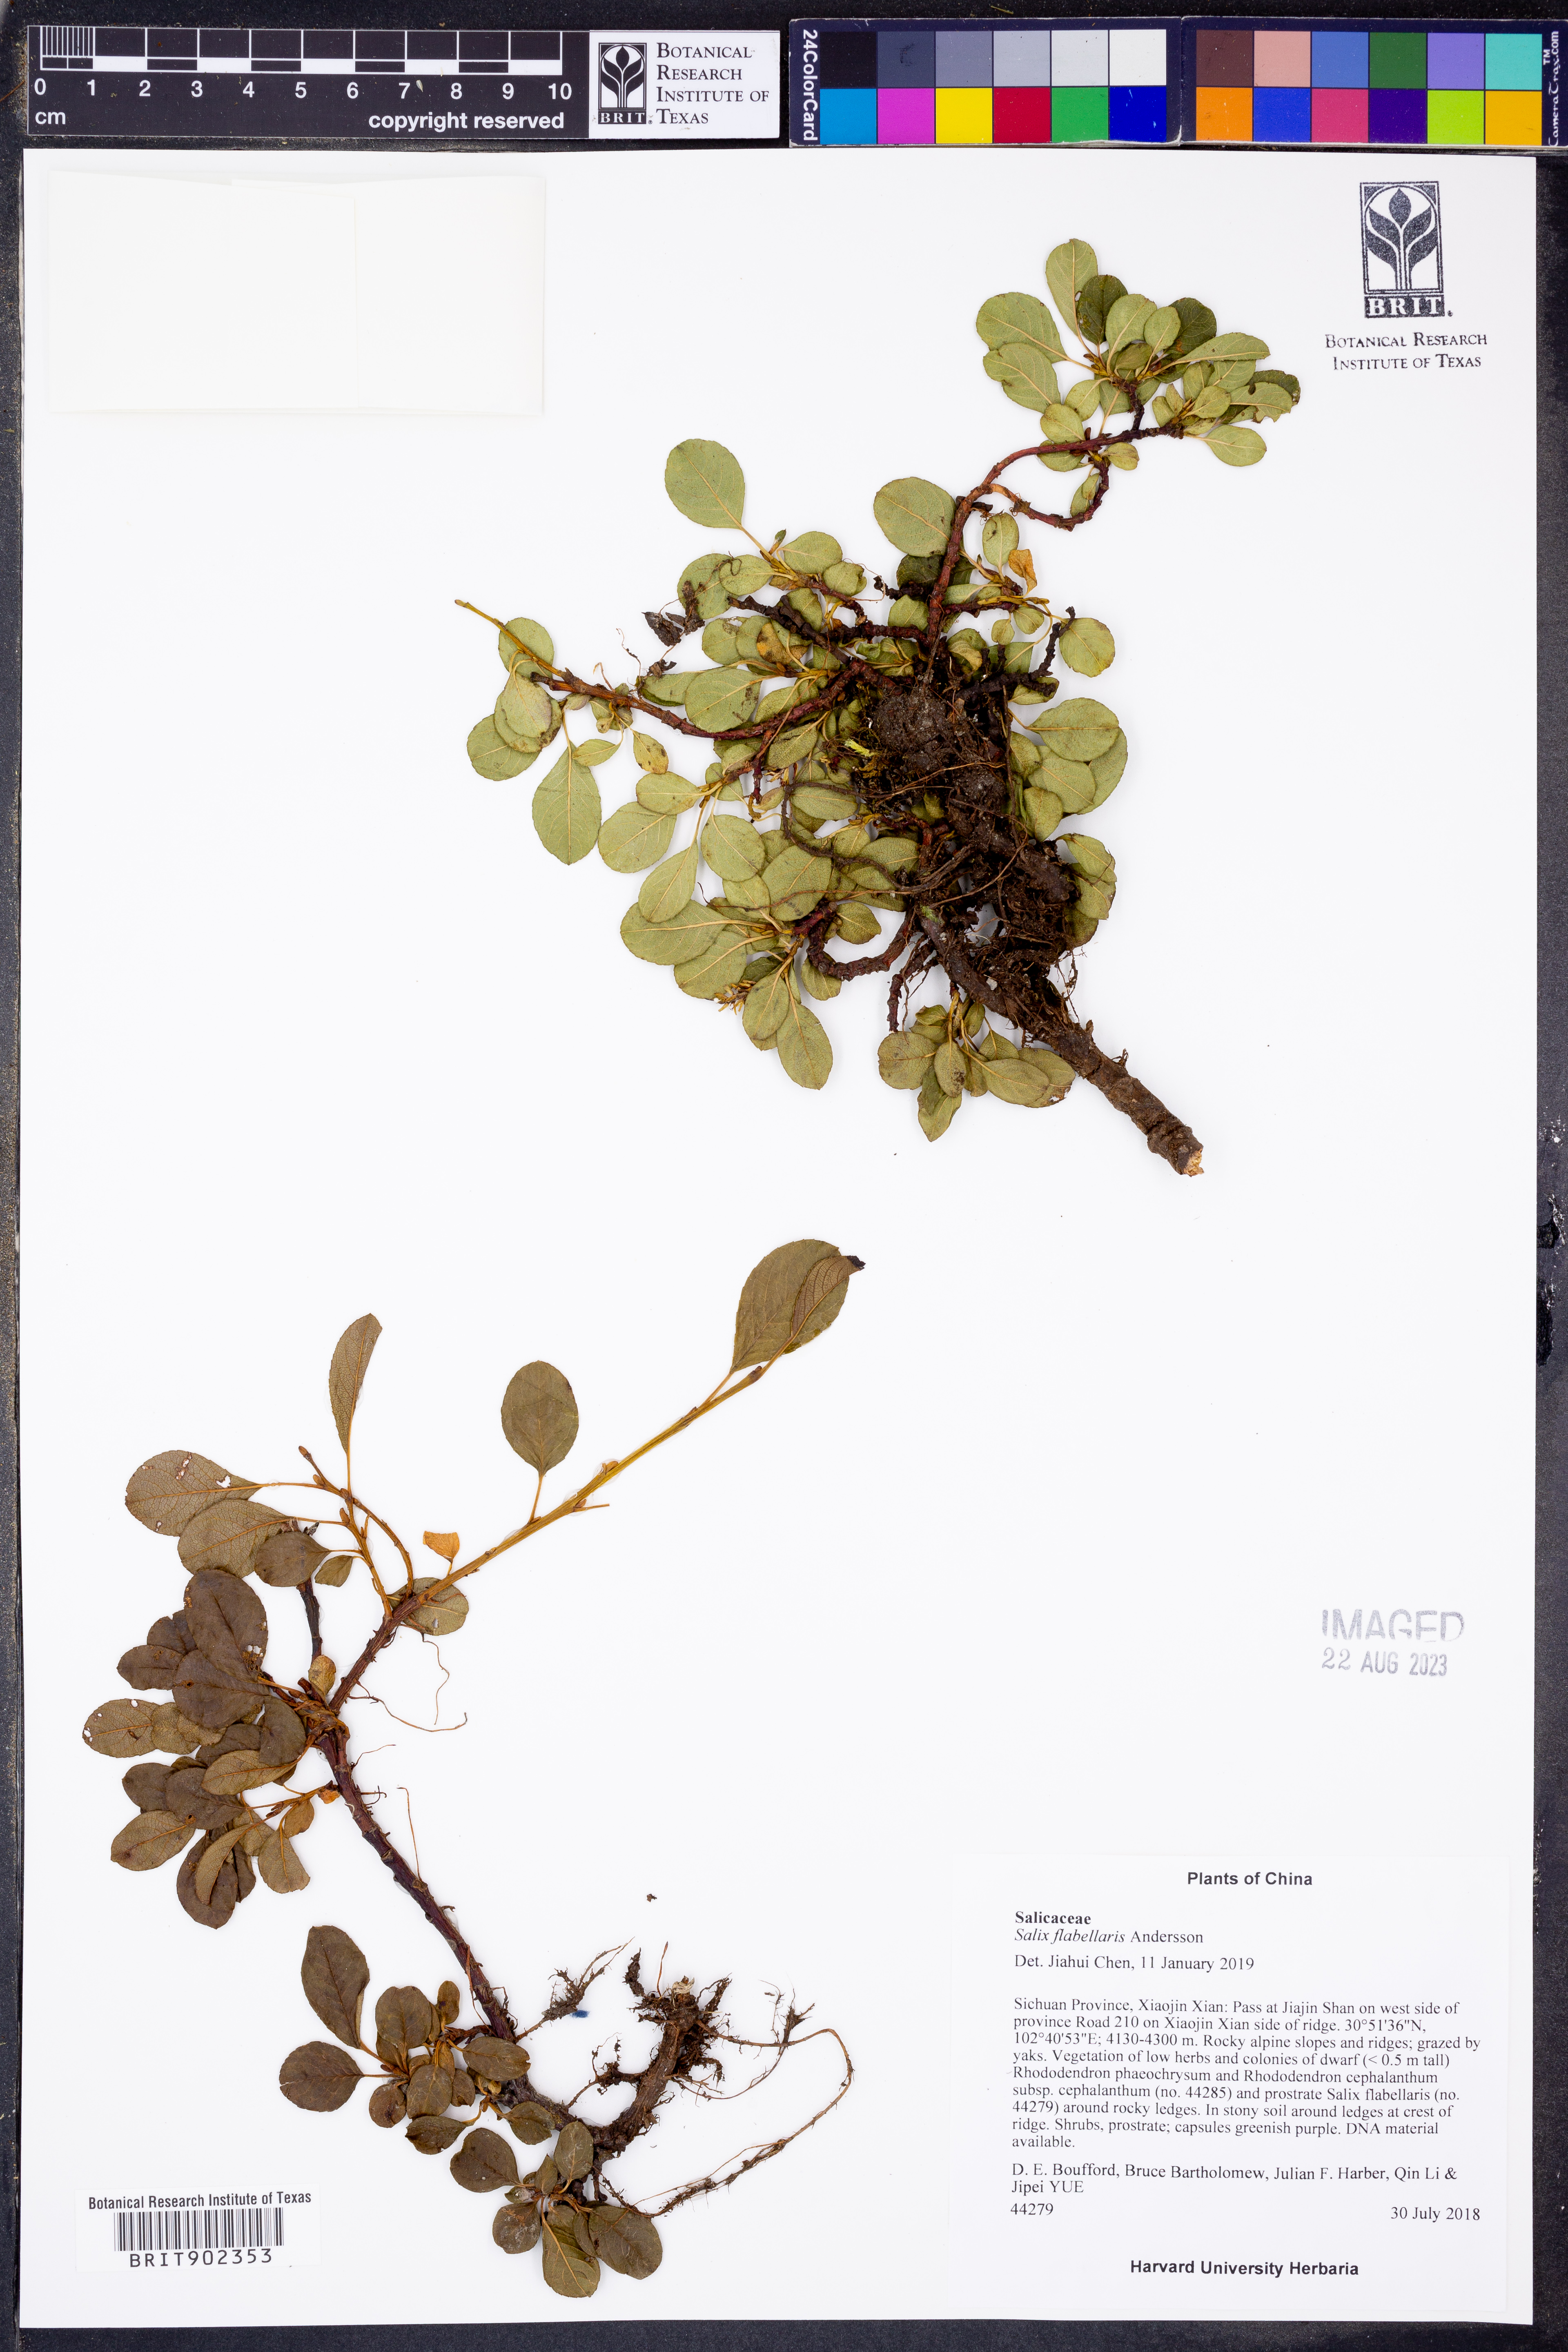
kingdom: Plantae
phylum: Tracheophyta
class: Magnoliopsida
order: Malpighiales
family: Salicaceae
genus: Salix
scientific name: Salix flabellaris
